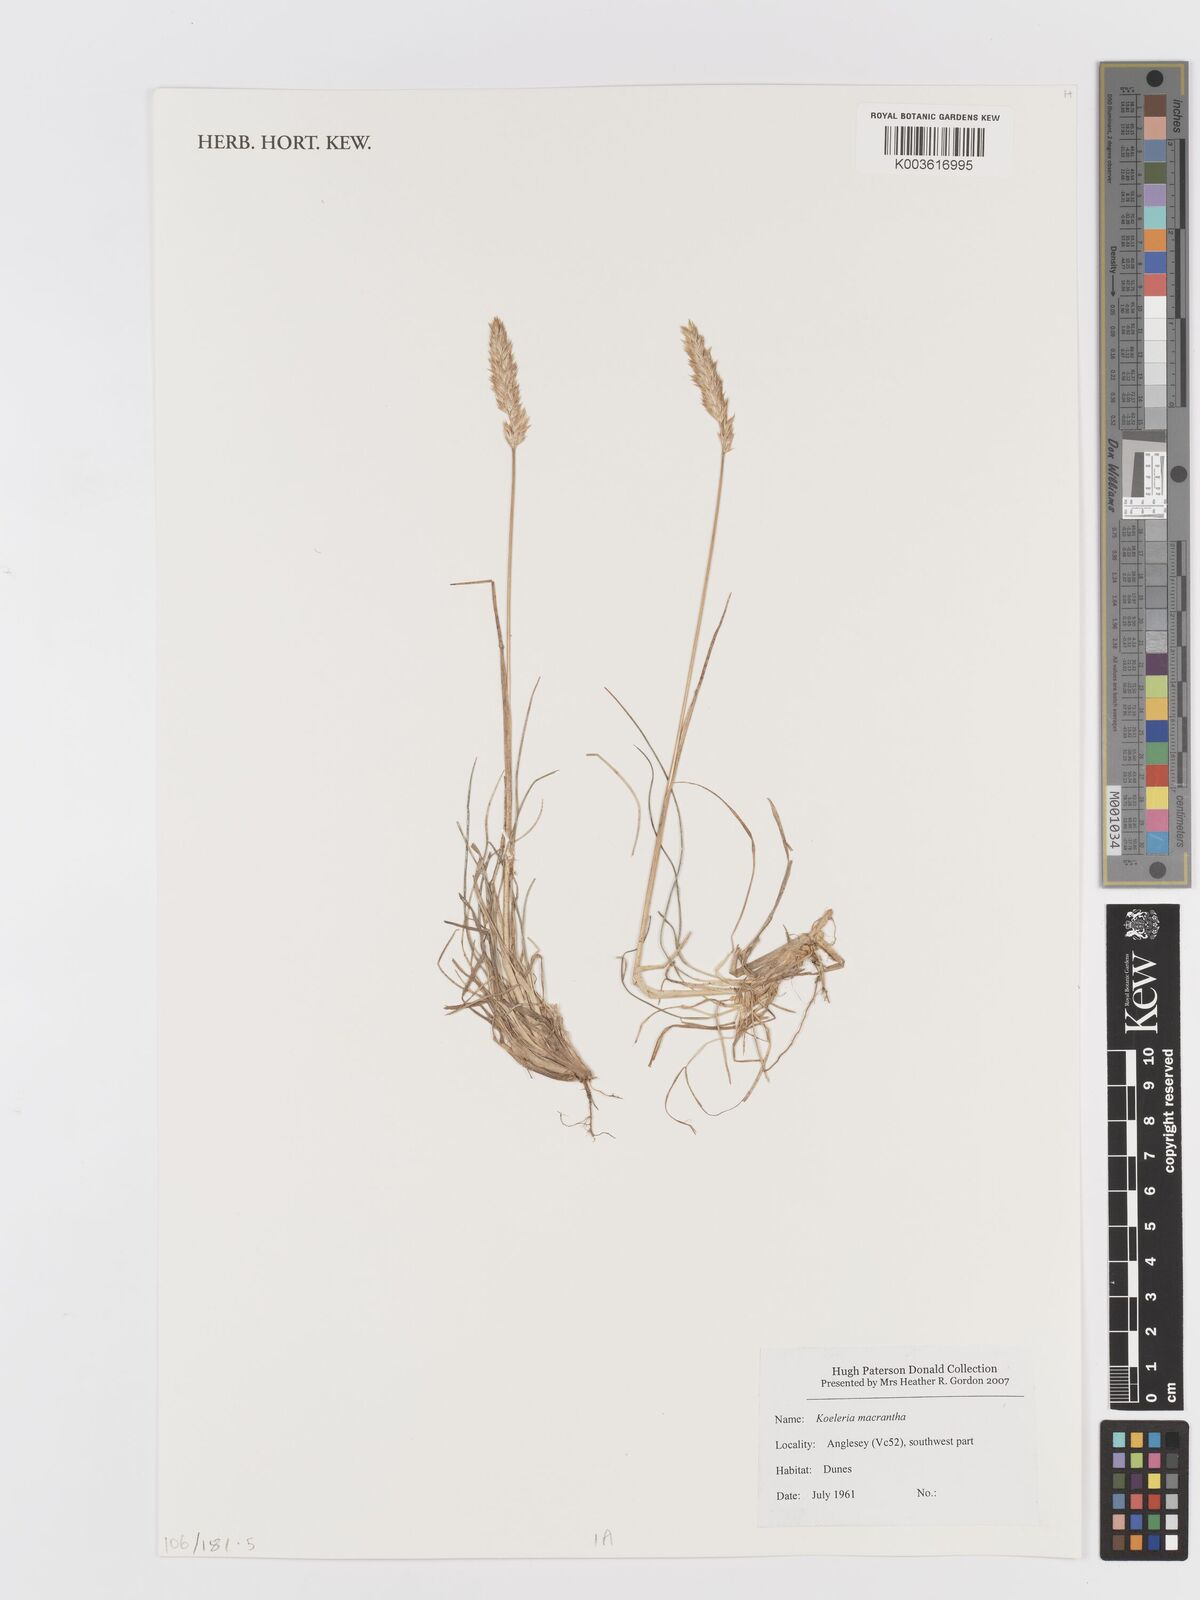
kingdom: Plantae
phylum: Tracheophyta
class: Liliopsida
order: Poales
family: Poaceae
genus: Koeleria
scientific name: Koeleria macrantha
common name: Crested hair-grass
